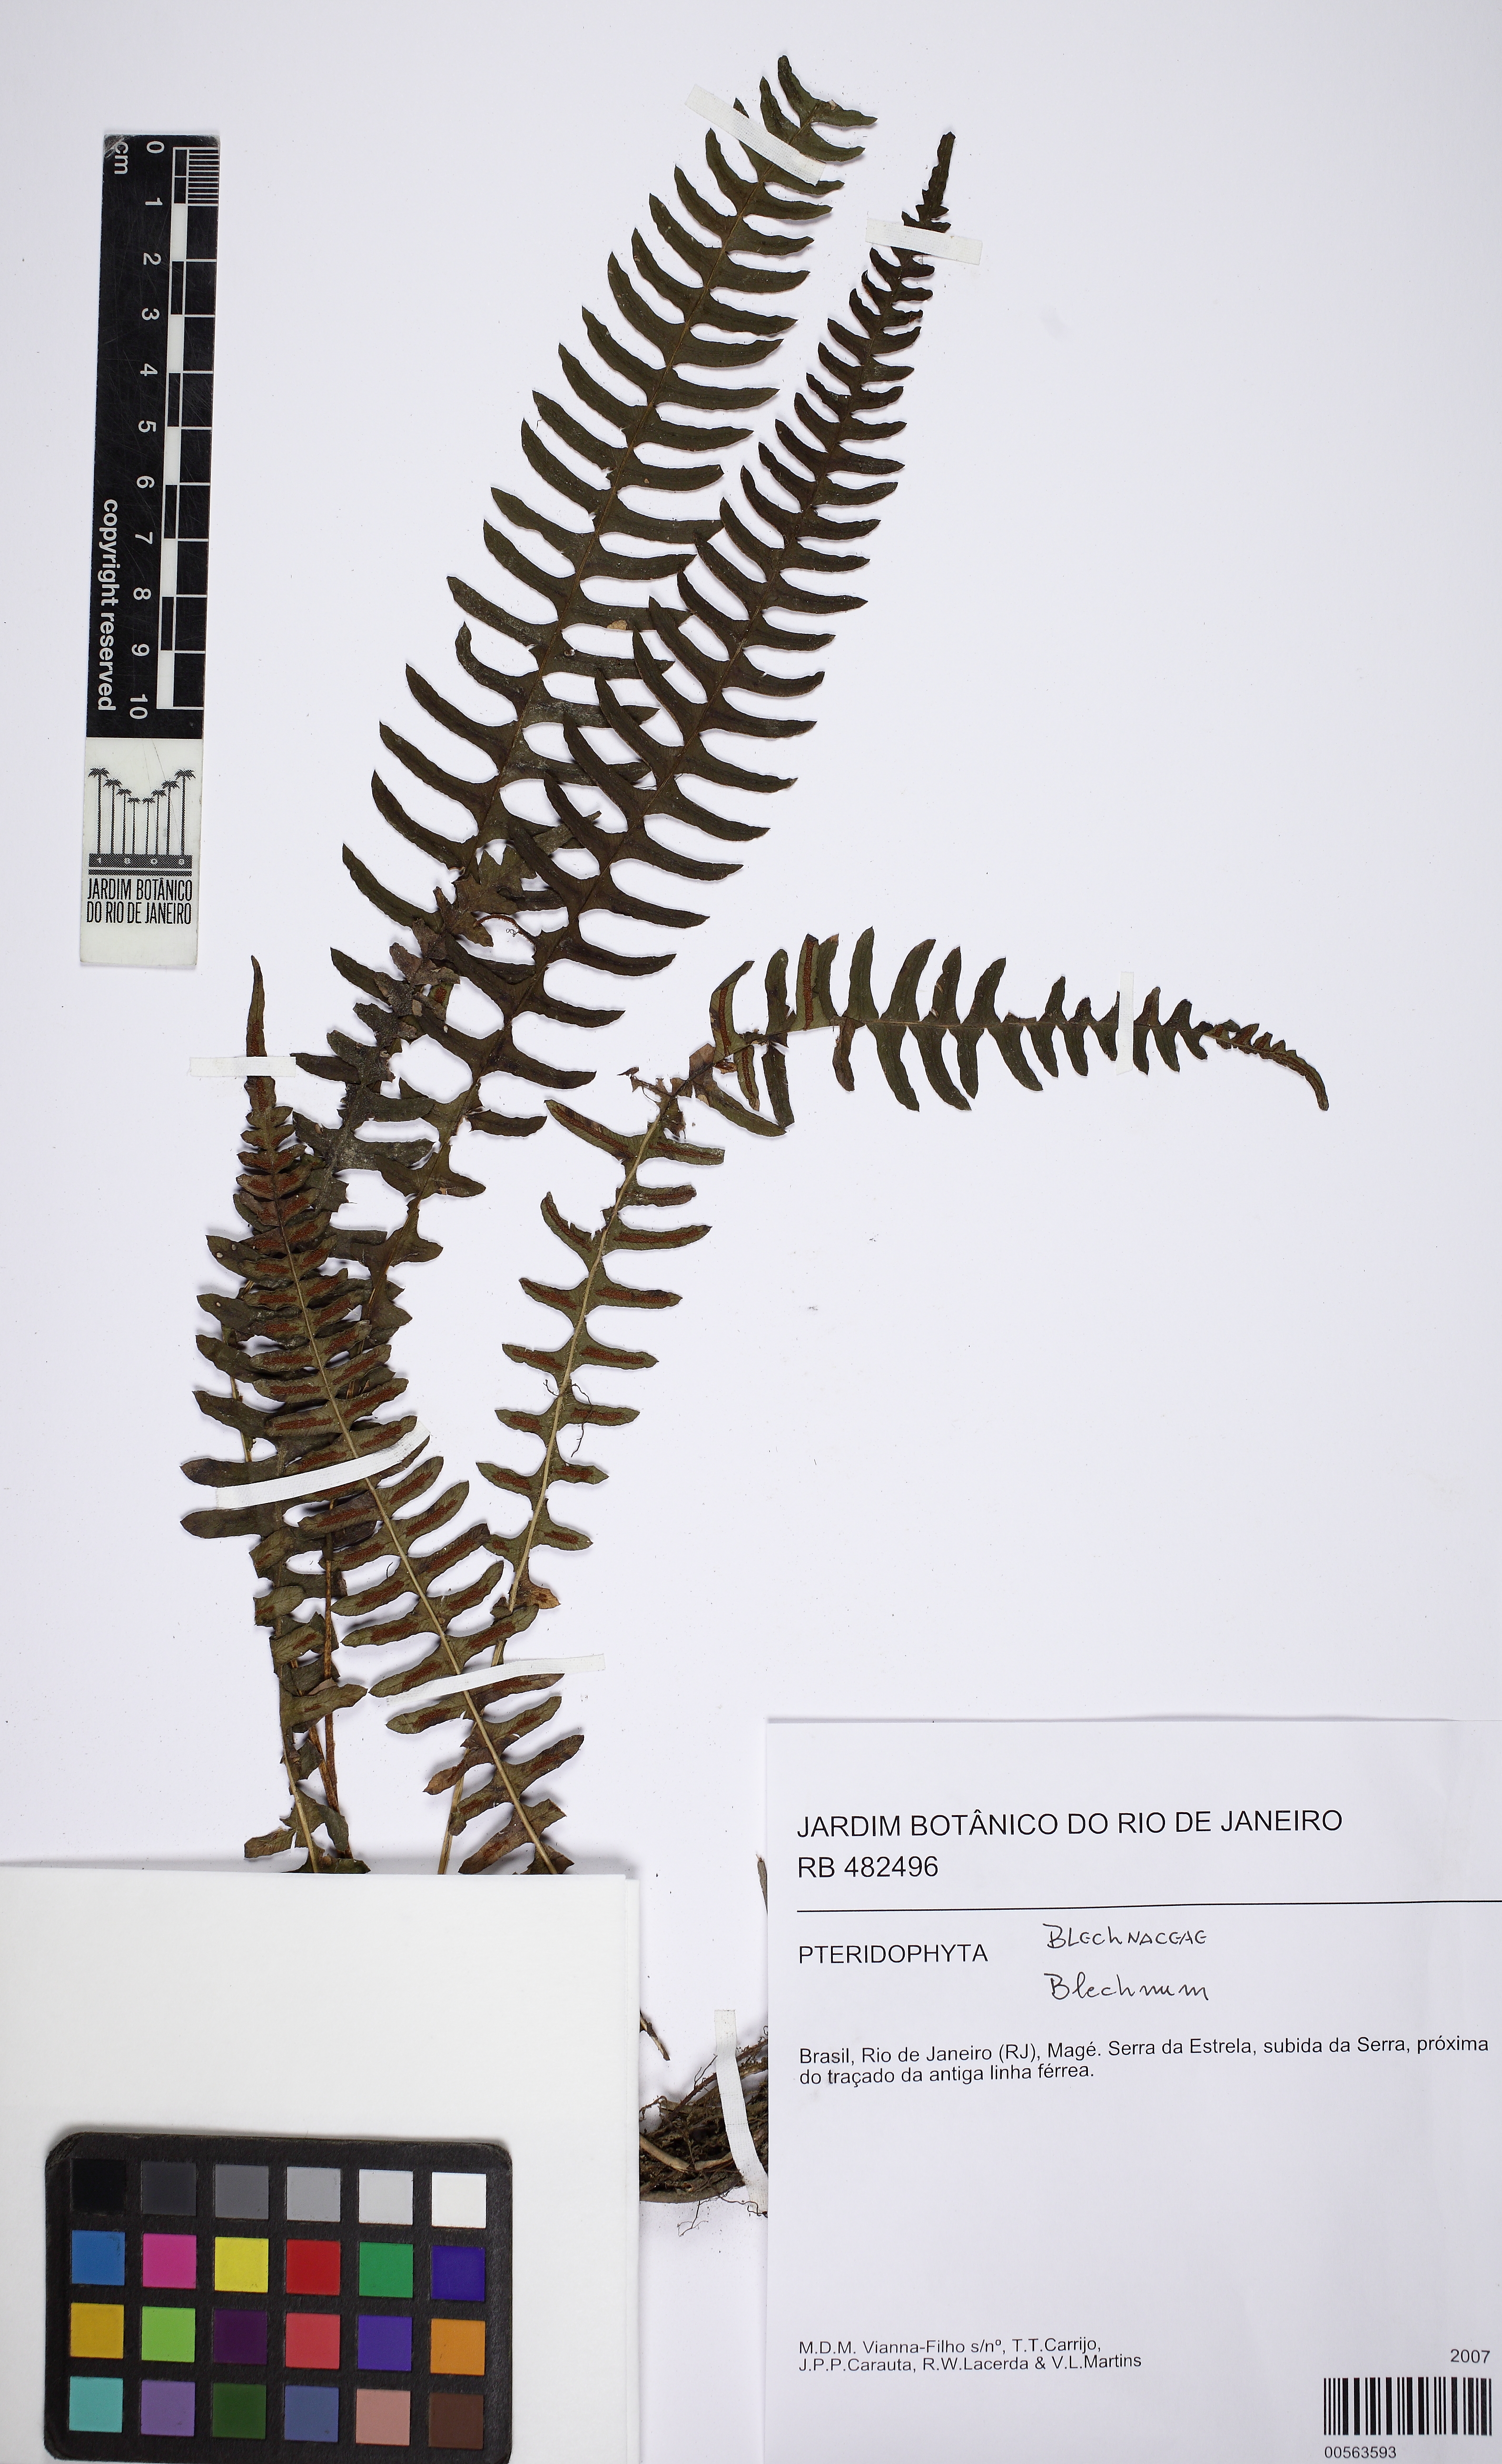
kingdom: Plantae
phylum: Tracheophyta
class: Polypodiopsida
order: Polypodiales
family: Blechnaceae
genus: Blechnum
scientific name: Blechnum polypodioides
